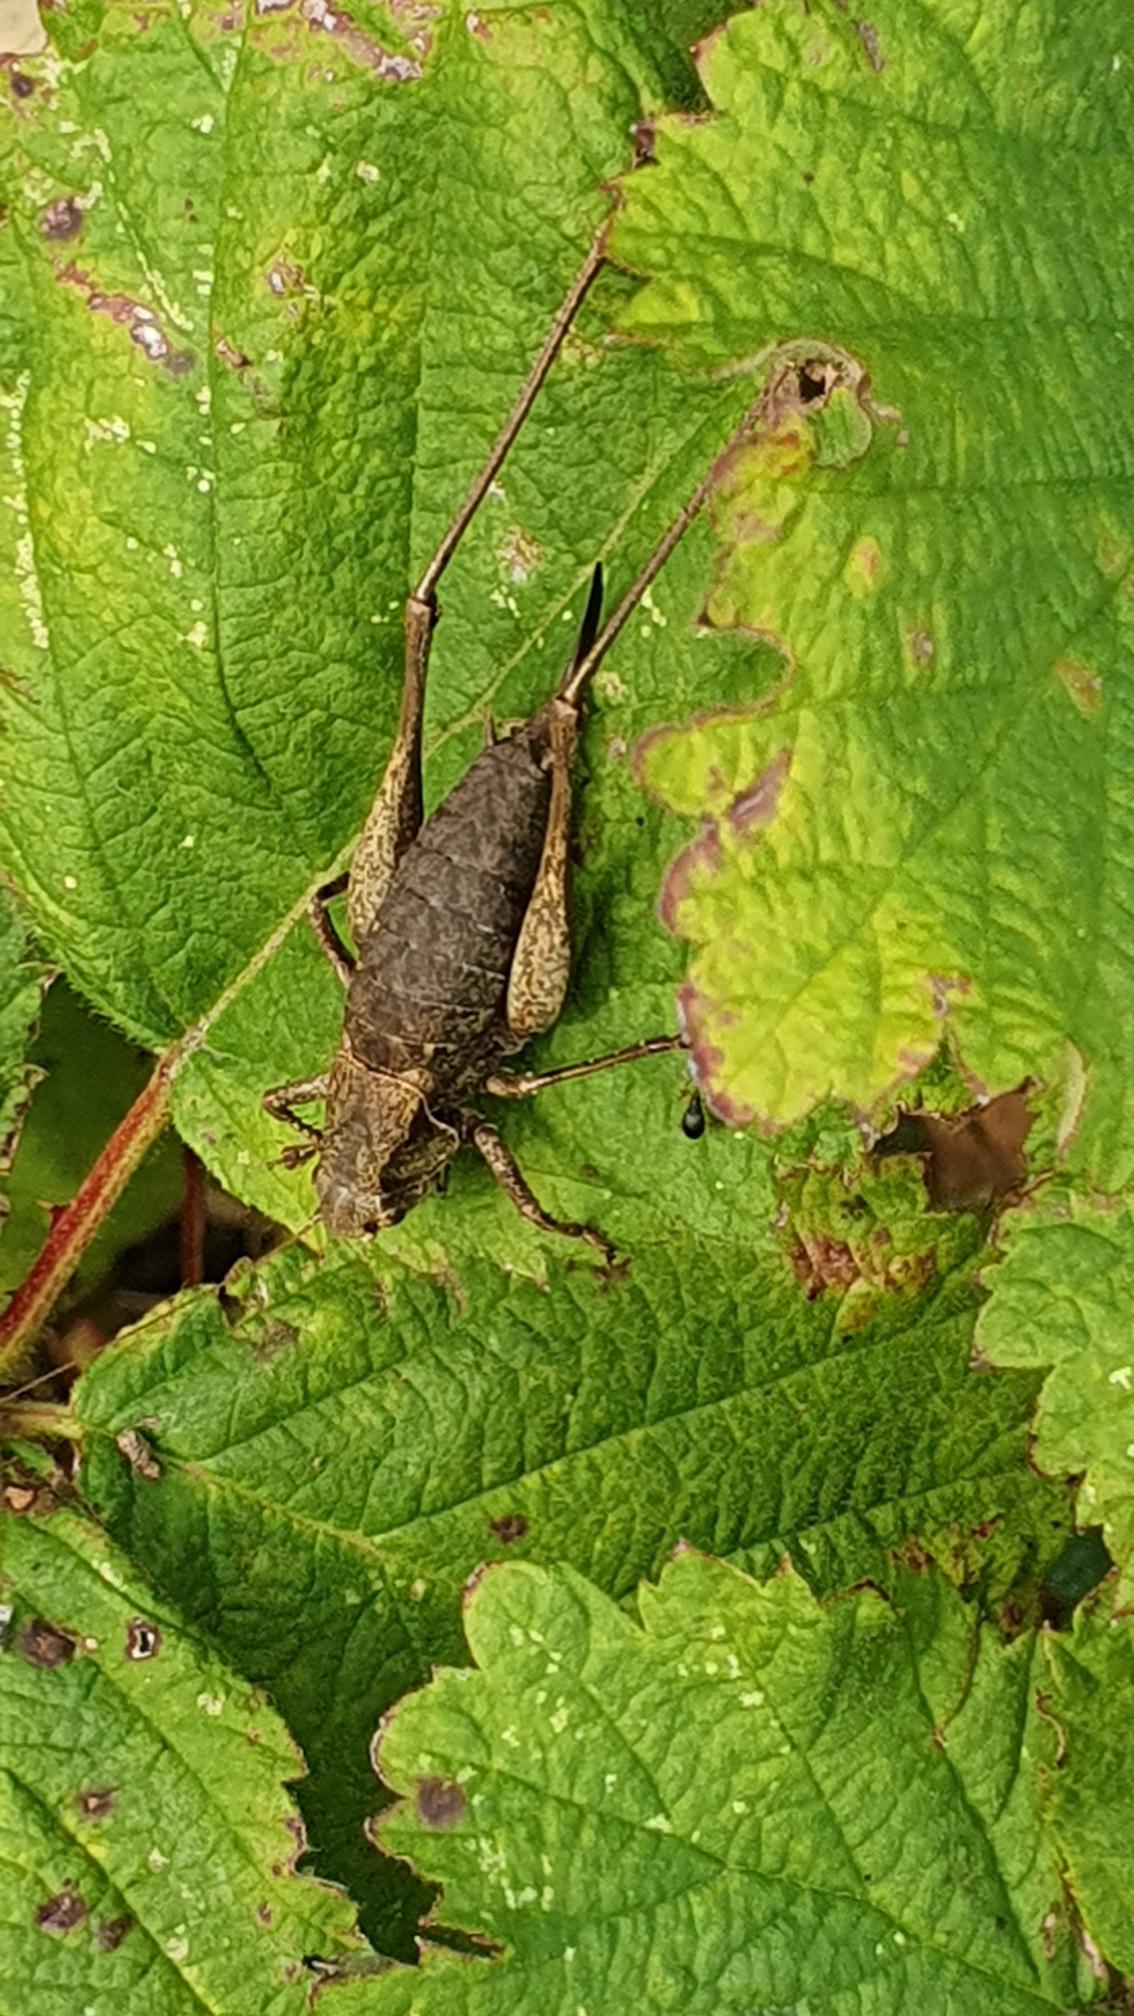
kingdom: Animalia
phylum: Arthropoda
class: Insecta
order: Orthoptera
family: Tettigoniidae
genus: Pholidoptera
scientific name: Pholidoptera griseoaptera
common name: Buskgræshoppe
